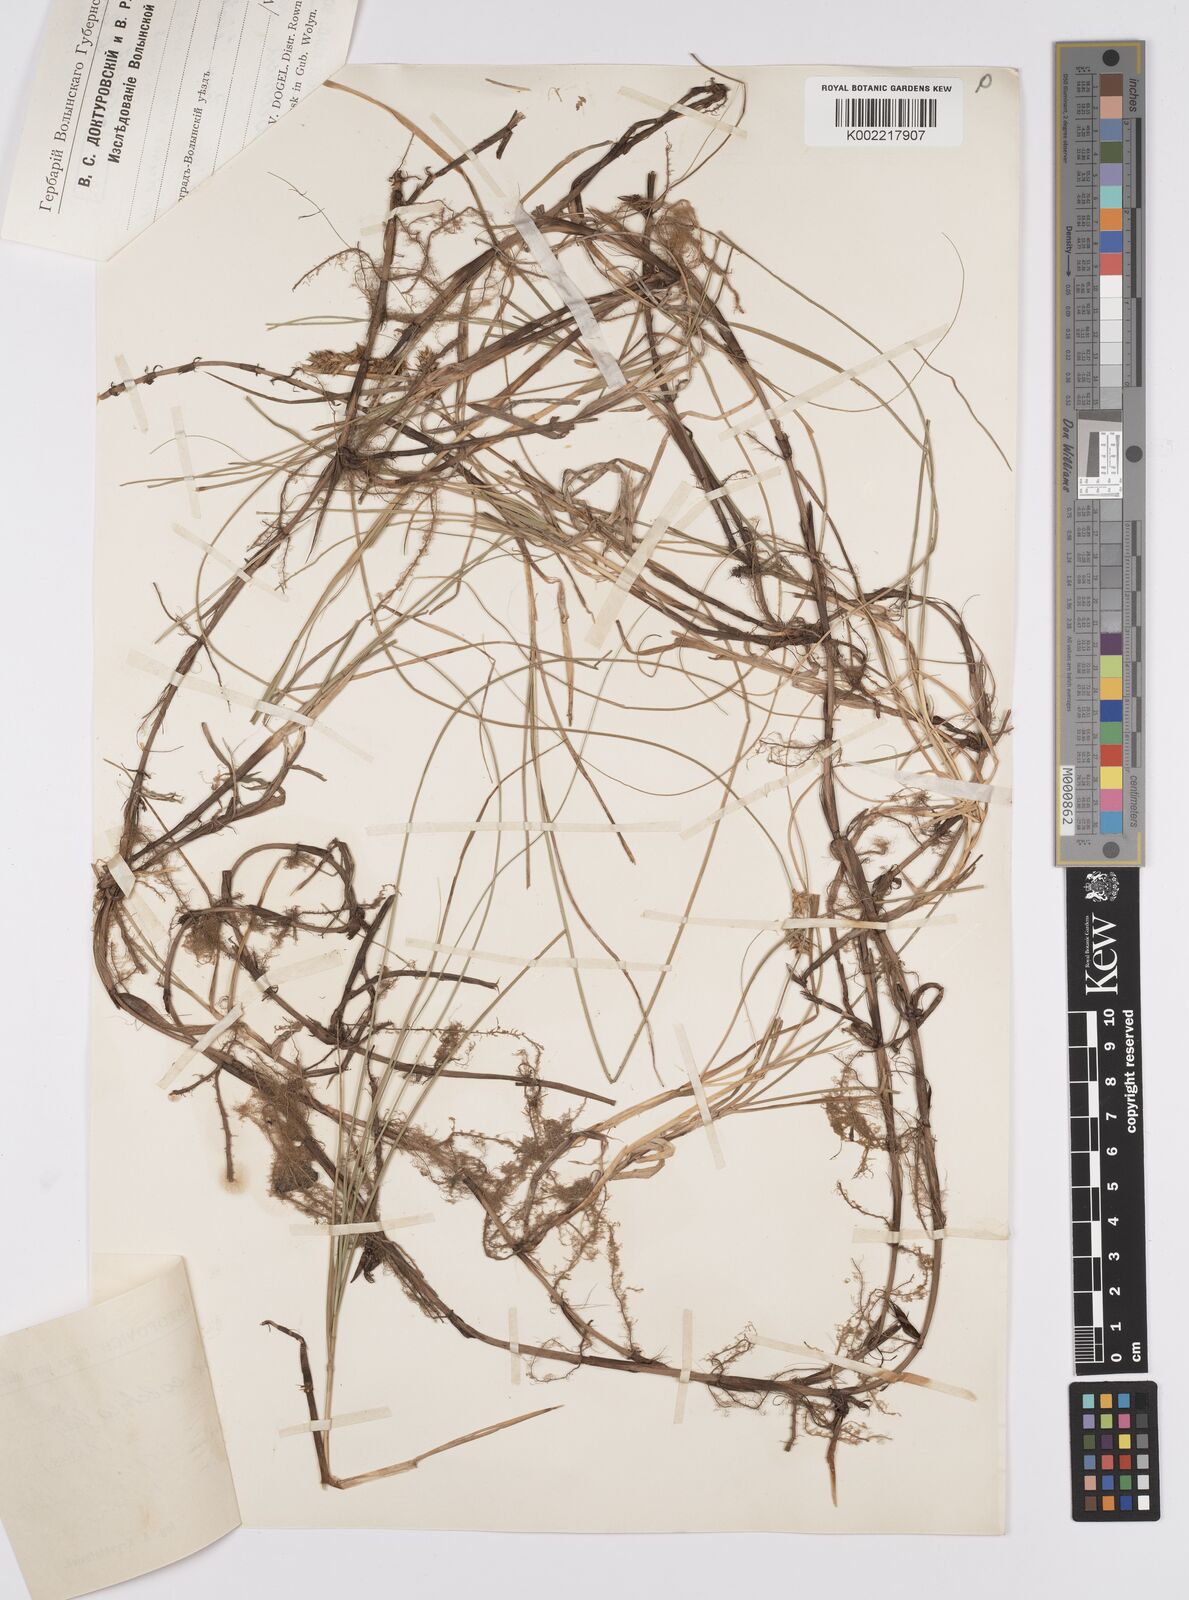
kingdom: Plantae
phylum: Tracheophyta
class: Liliopsida
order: Poales
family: Cyperaceae
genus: Carex
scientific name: Carex arenaria
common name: Sand sedge
